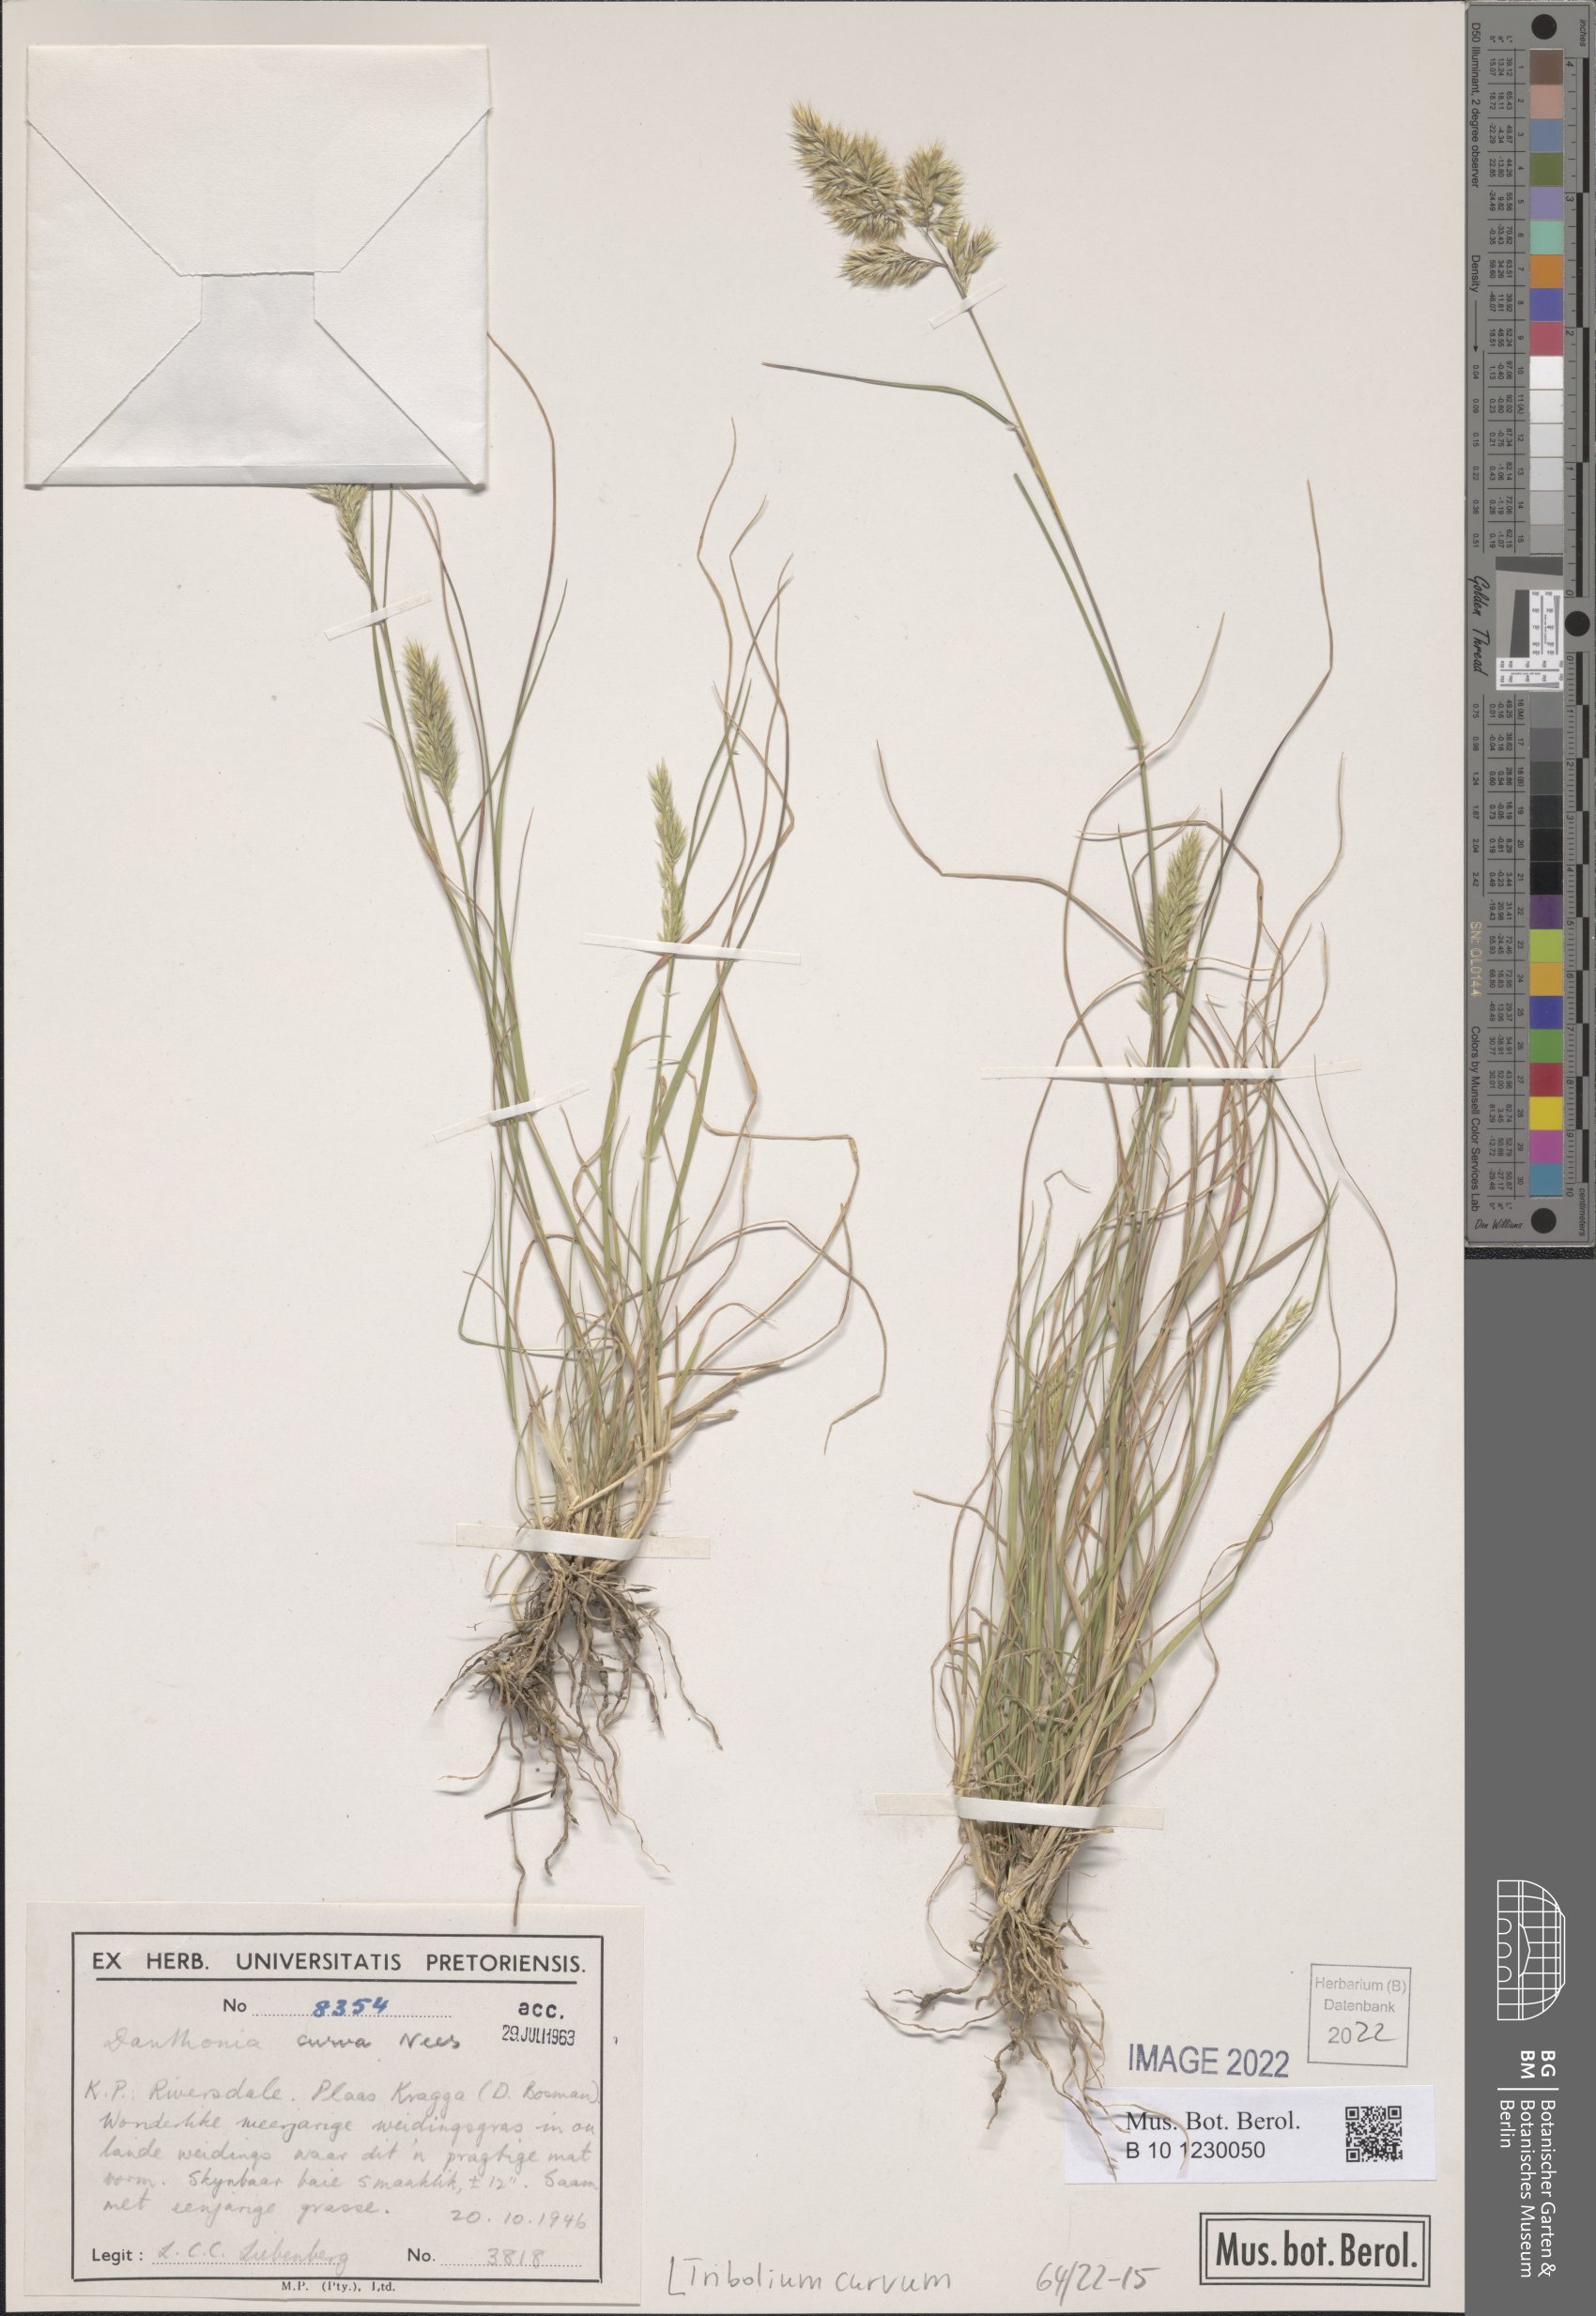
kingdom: Plantae
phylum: Tracheophyta
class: Liliopsida
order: Poales
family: Poaceae
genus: Tribolium
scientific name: Tribolium curvum
